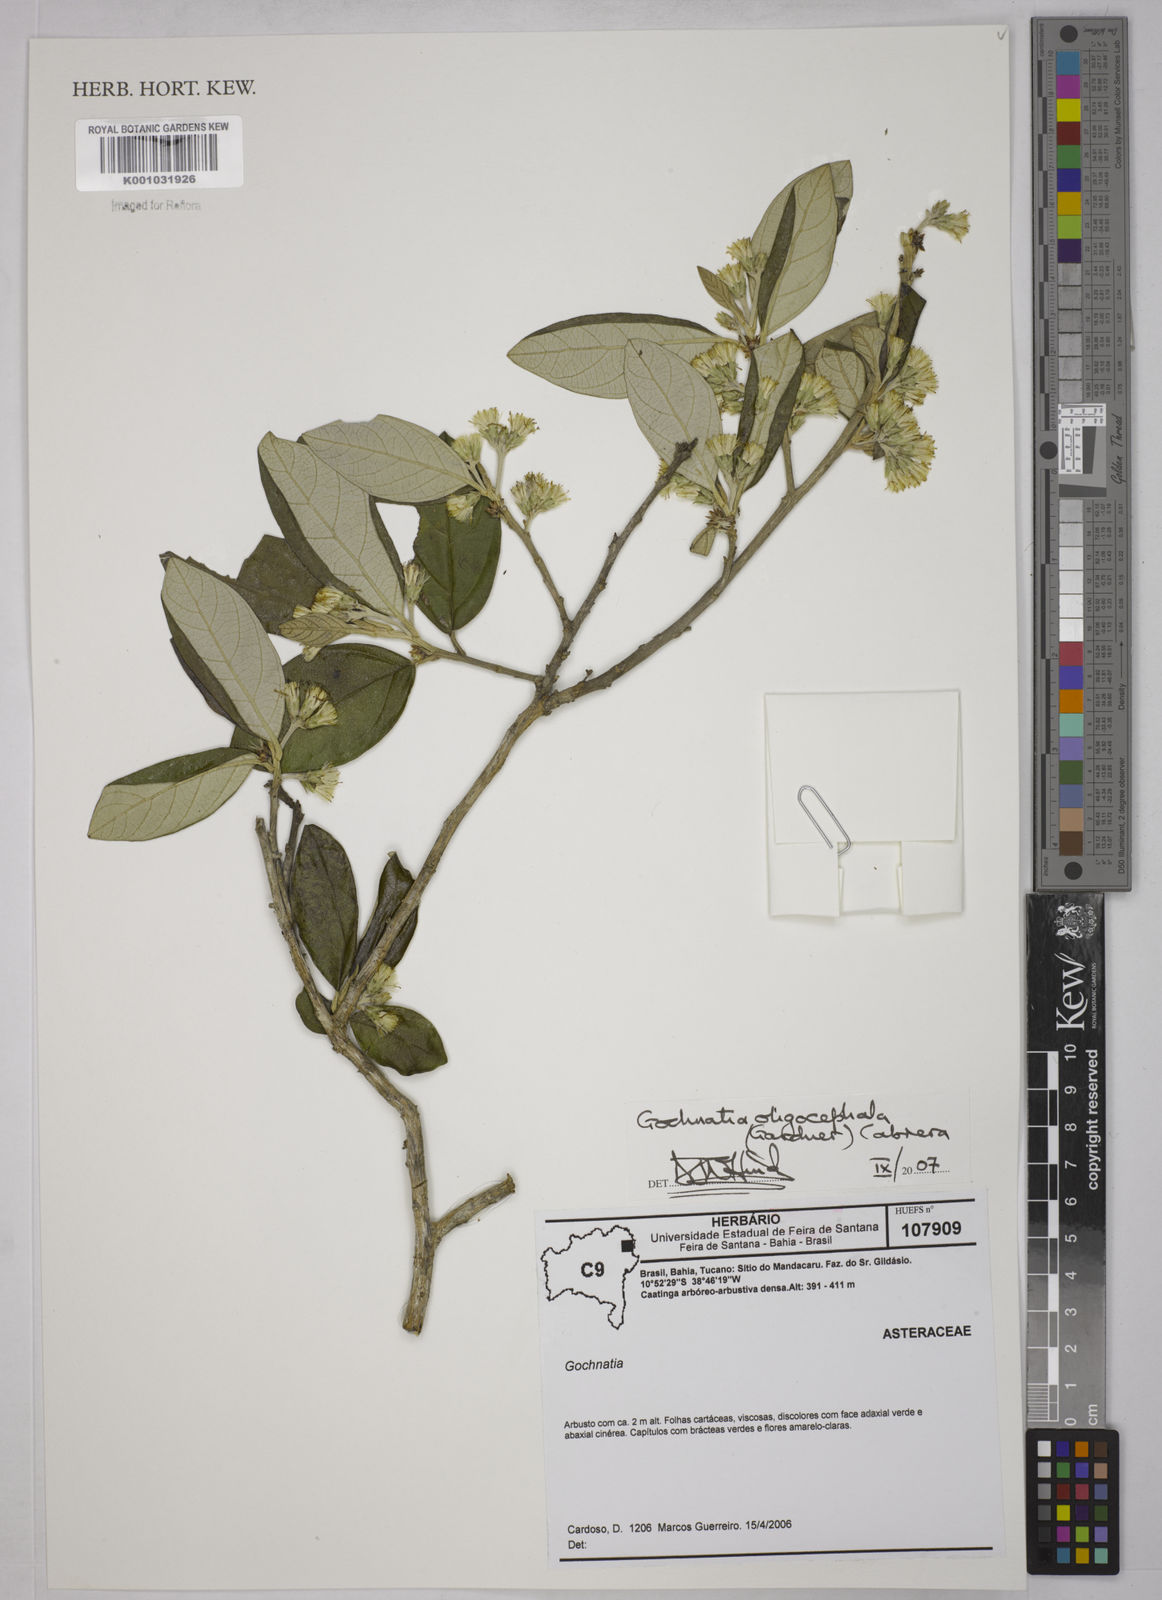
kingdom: Plantae
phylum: Tracheophyta
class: Magnoliopsida
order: Asterales
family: Asteraceae
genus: Moquiniastrum
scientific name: Moquiniastrum oligocephalum
